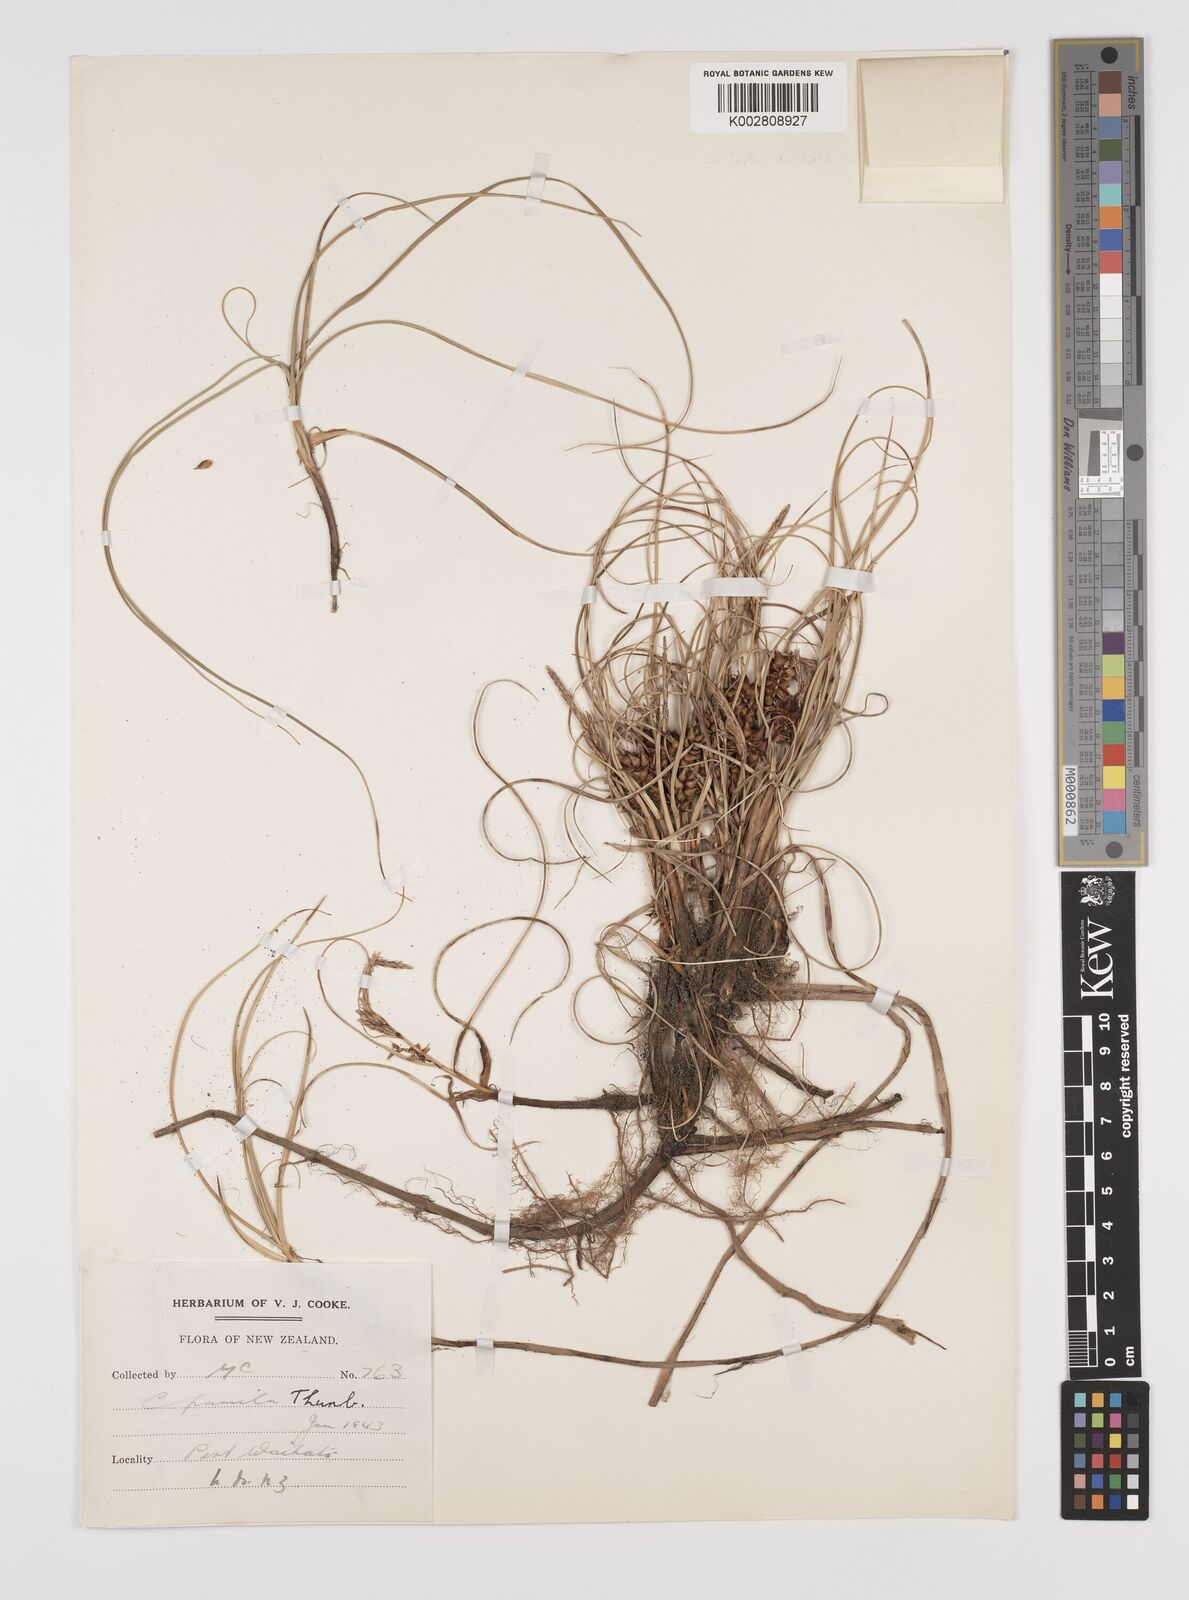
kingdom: Plantae
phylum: Tracheophyta
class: Liliopsida
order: Poales
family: Cyperaceae
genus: Carex
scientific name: Carex pumila
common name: Dwarf sedge
